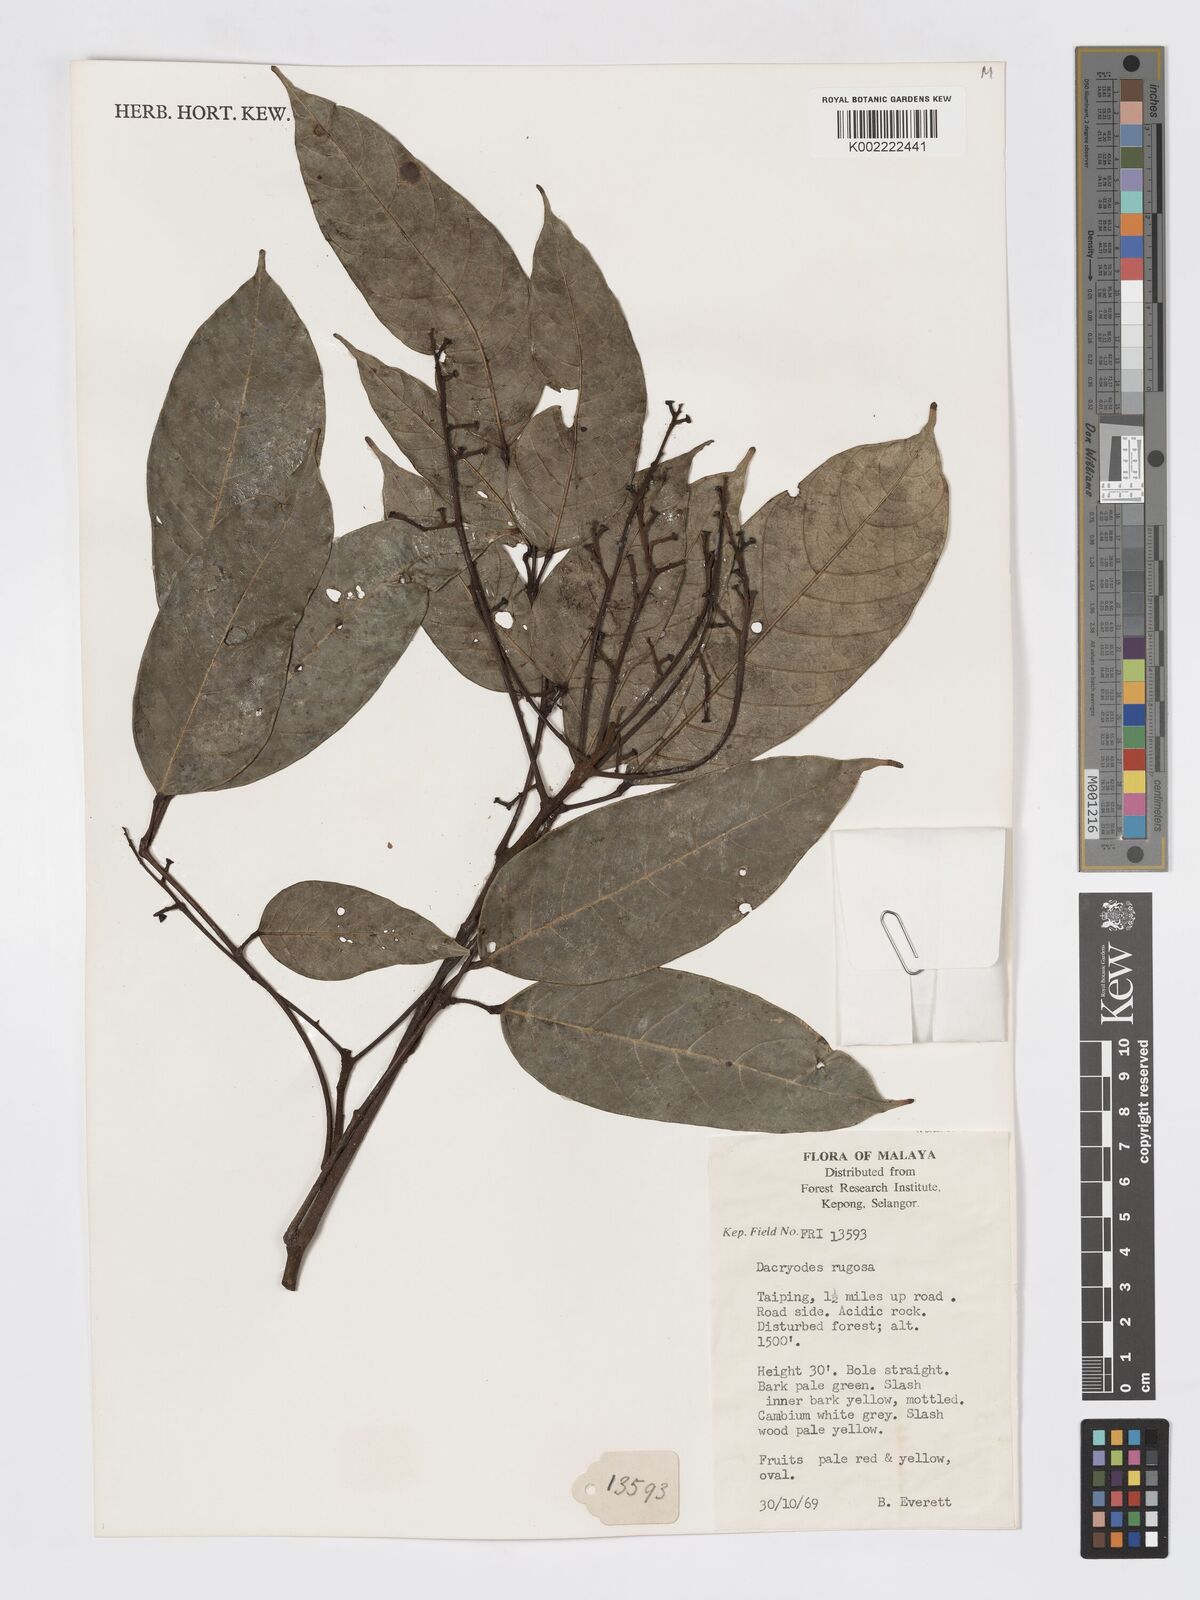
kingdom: Plantae
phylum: Tracheophyta
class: Magnoliopsida
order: Sapindales
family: Burseraceae
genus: Dacryodes
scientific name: Dacryodes rugosa
